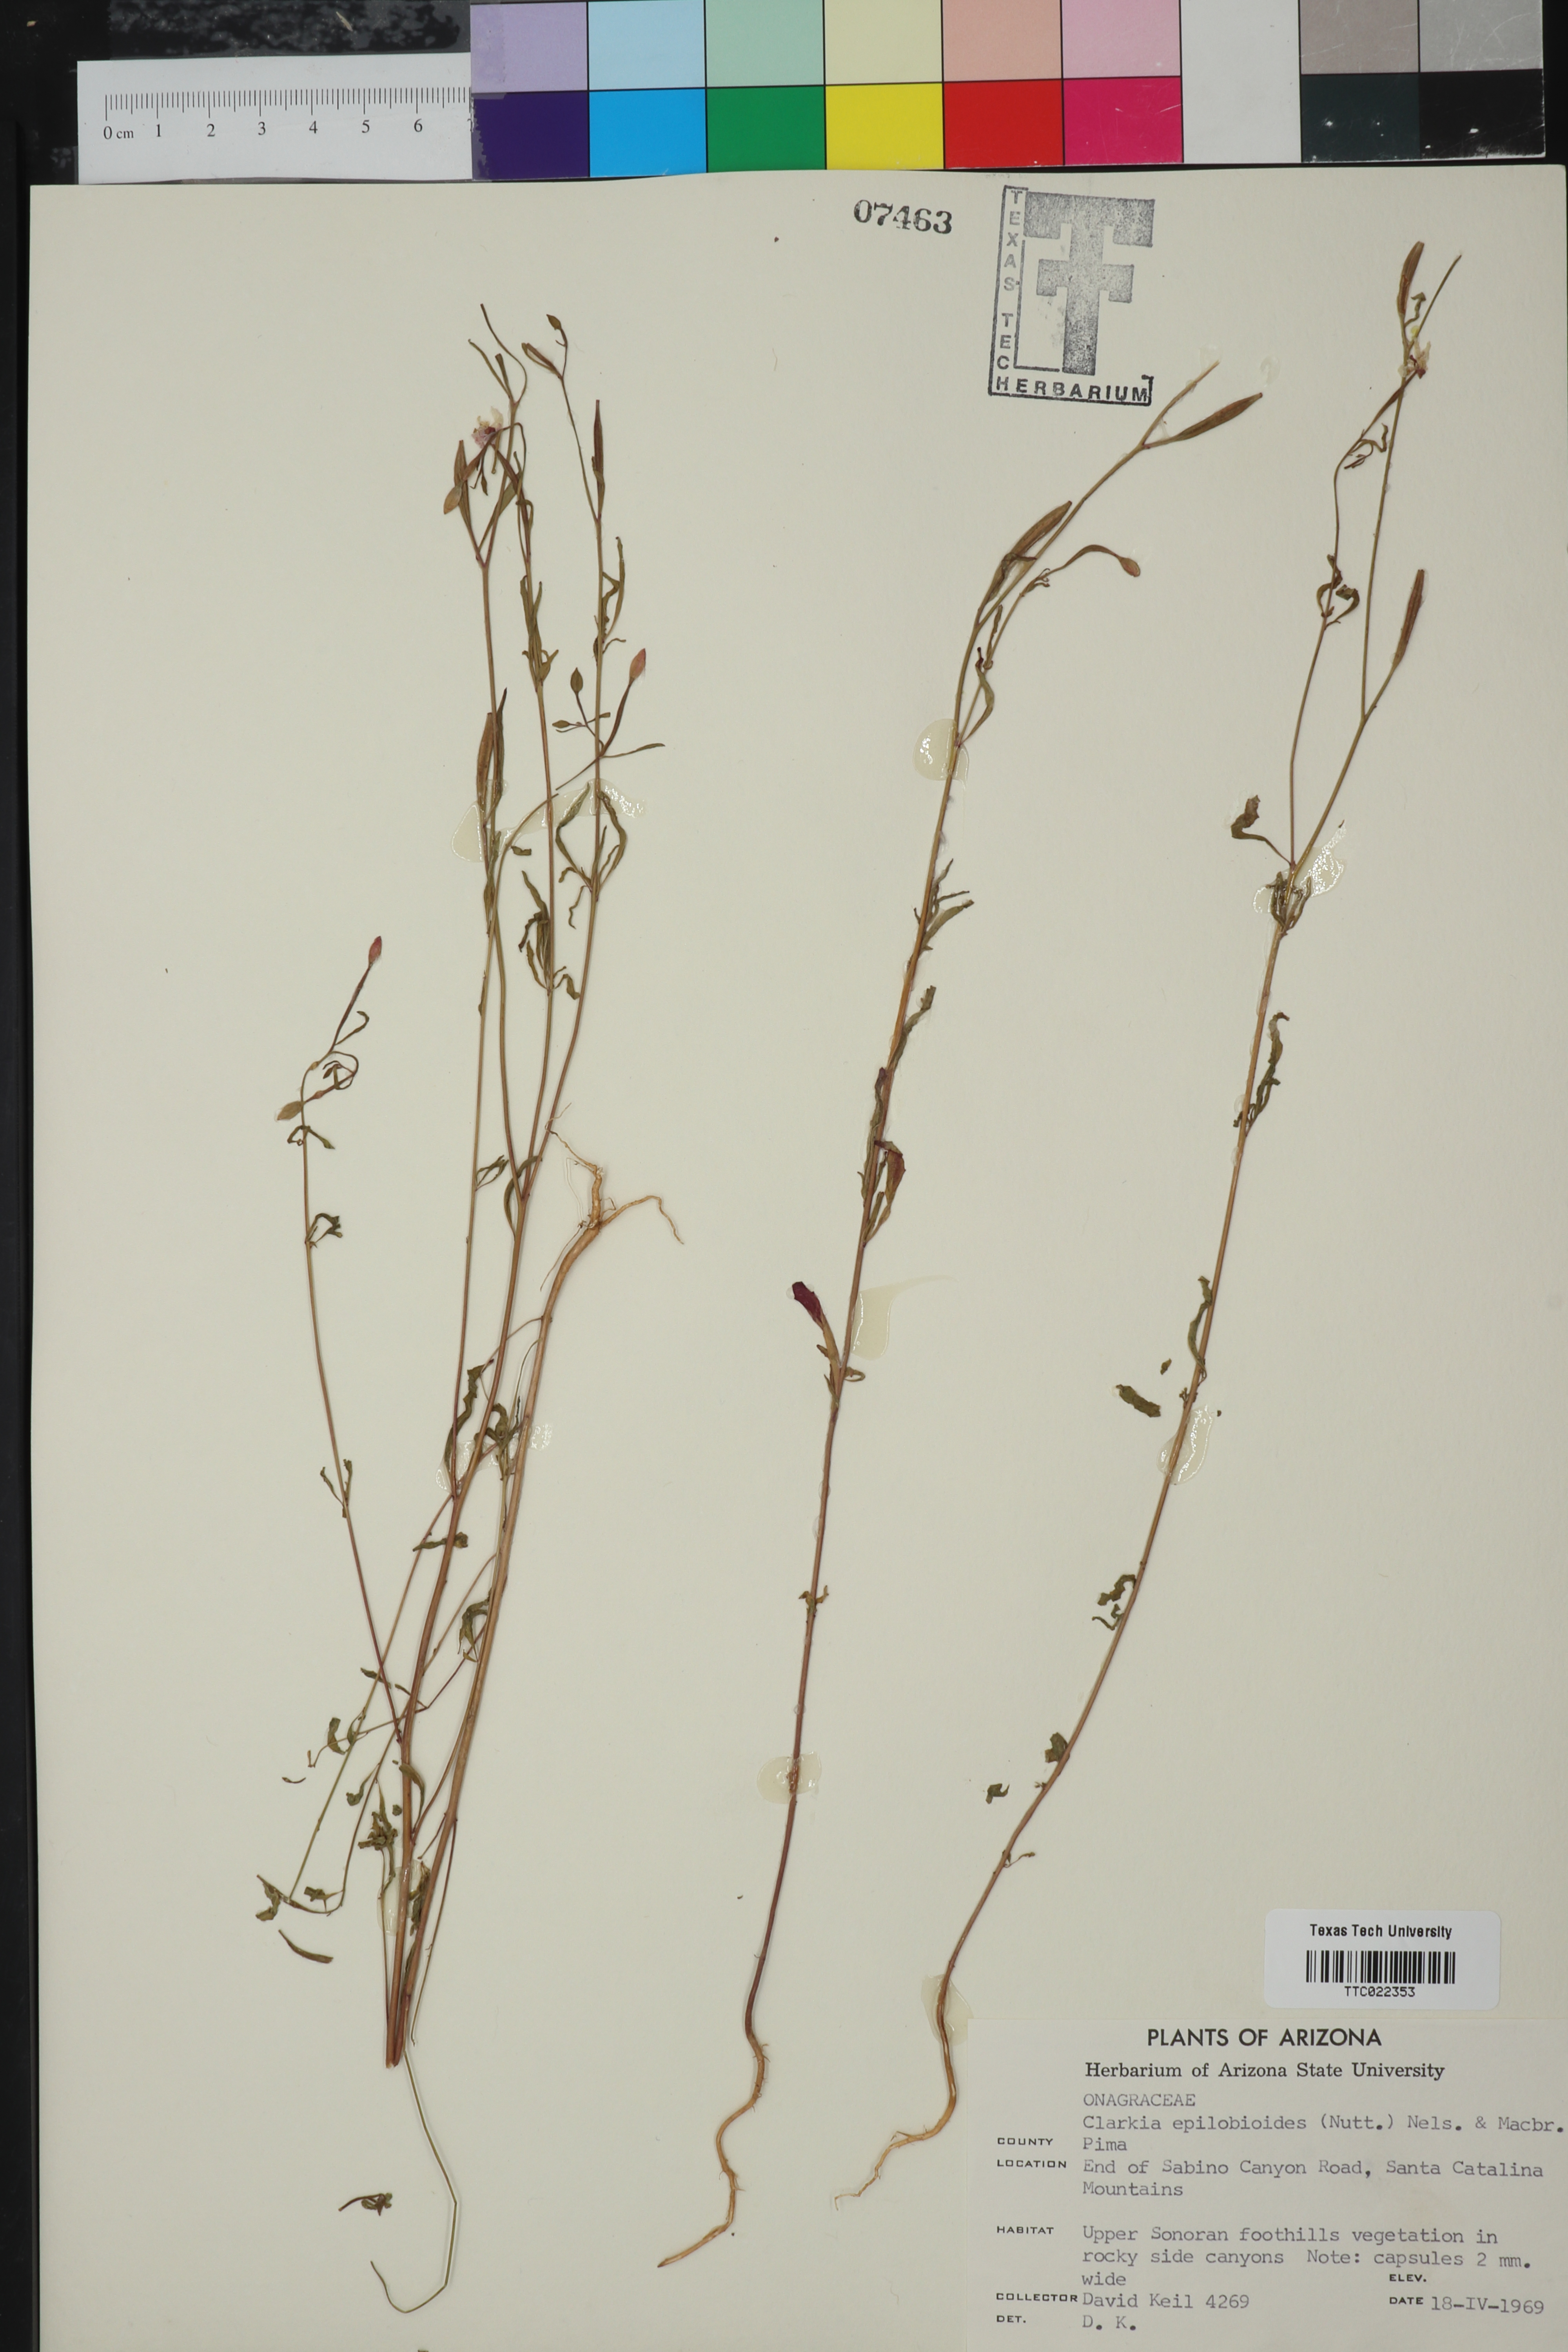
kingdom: Plantae
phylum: Tracheophyta
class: Magnoliopsida
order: Myrtales
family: Onagraceae
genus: Clarkia
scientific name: Clarkia epilobioides
